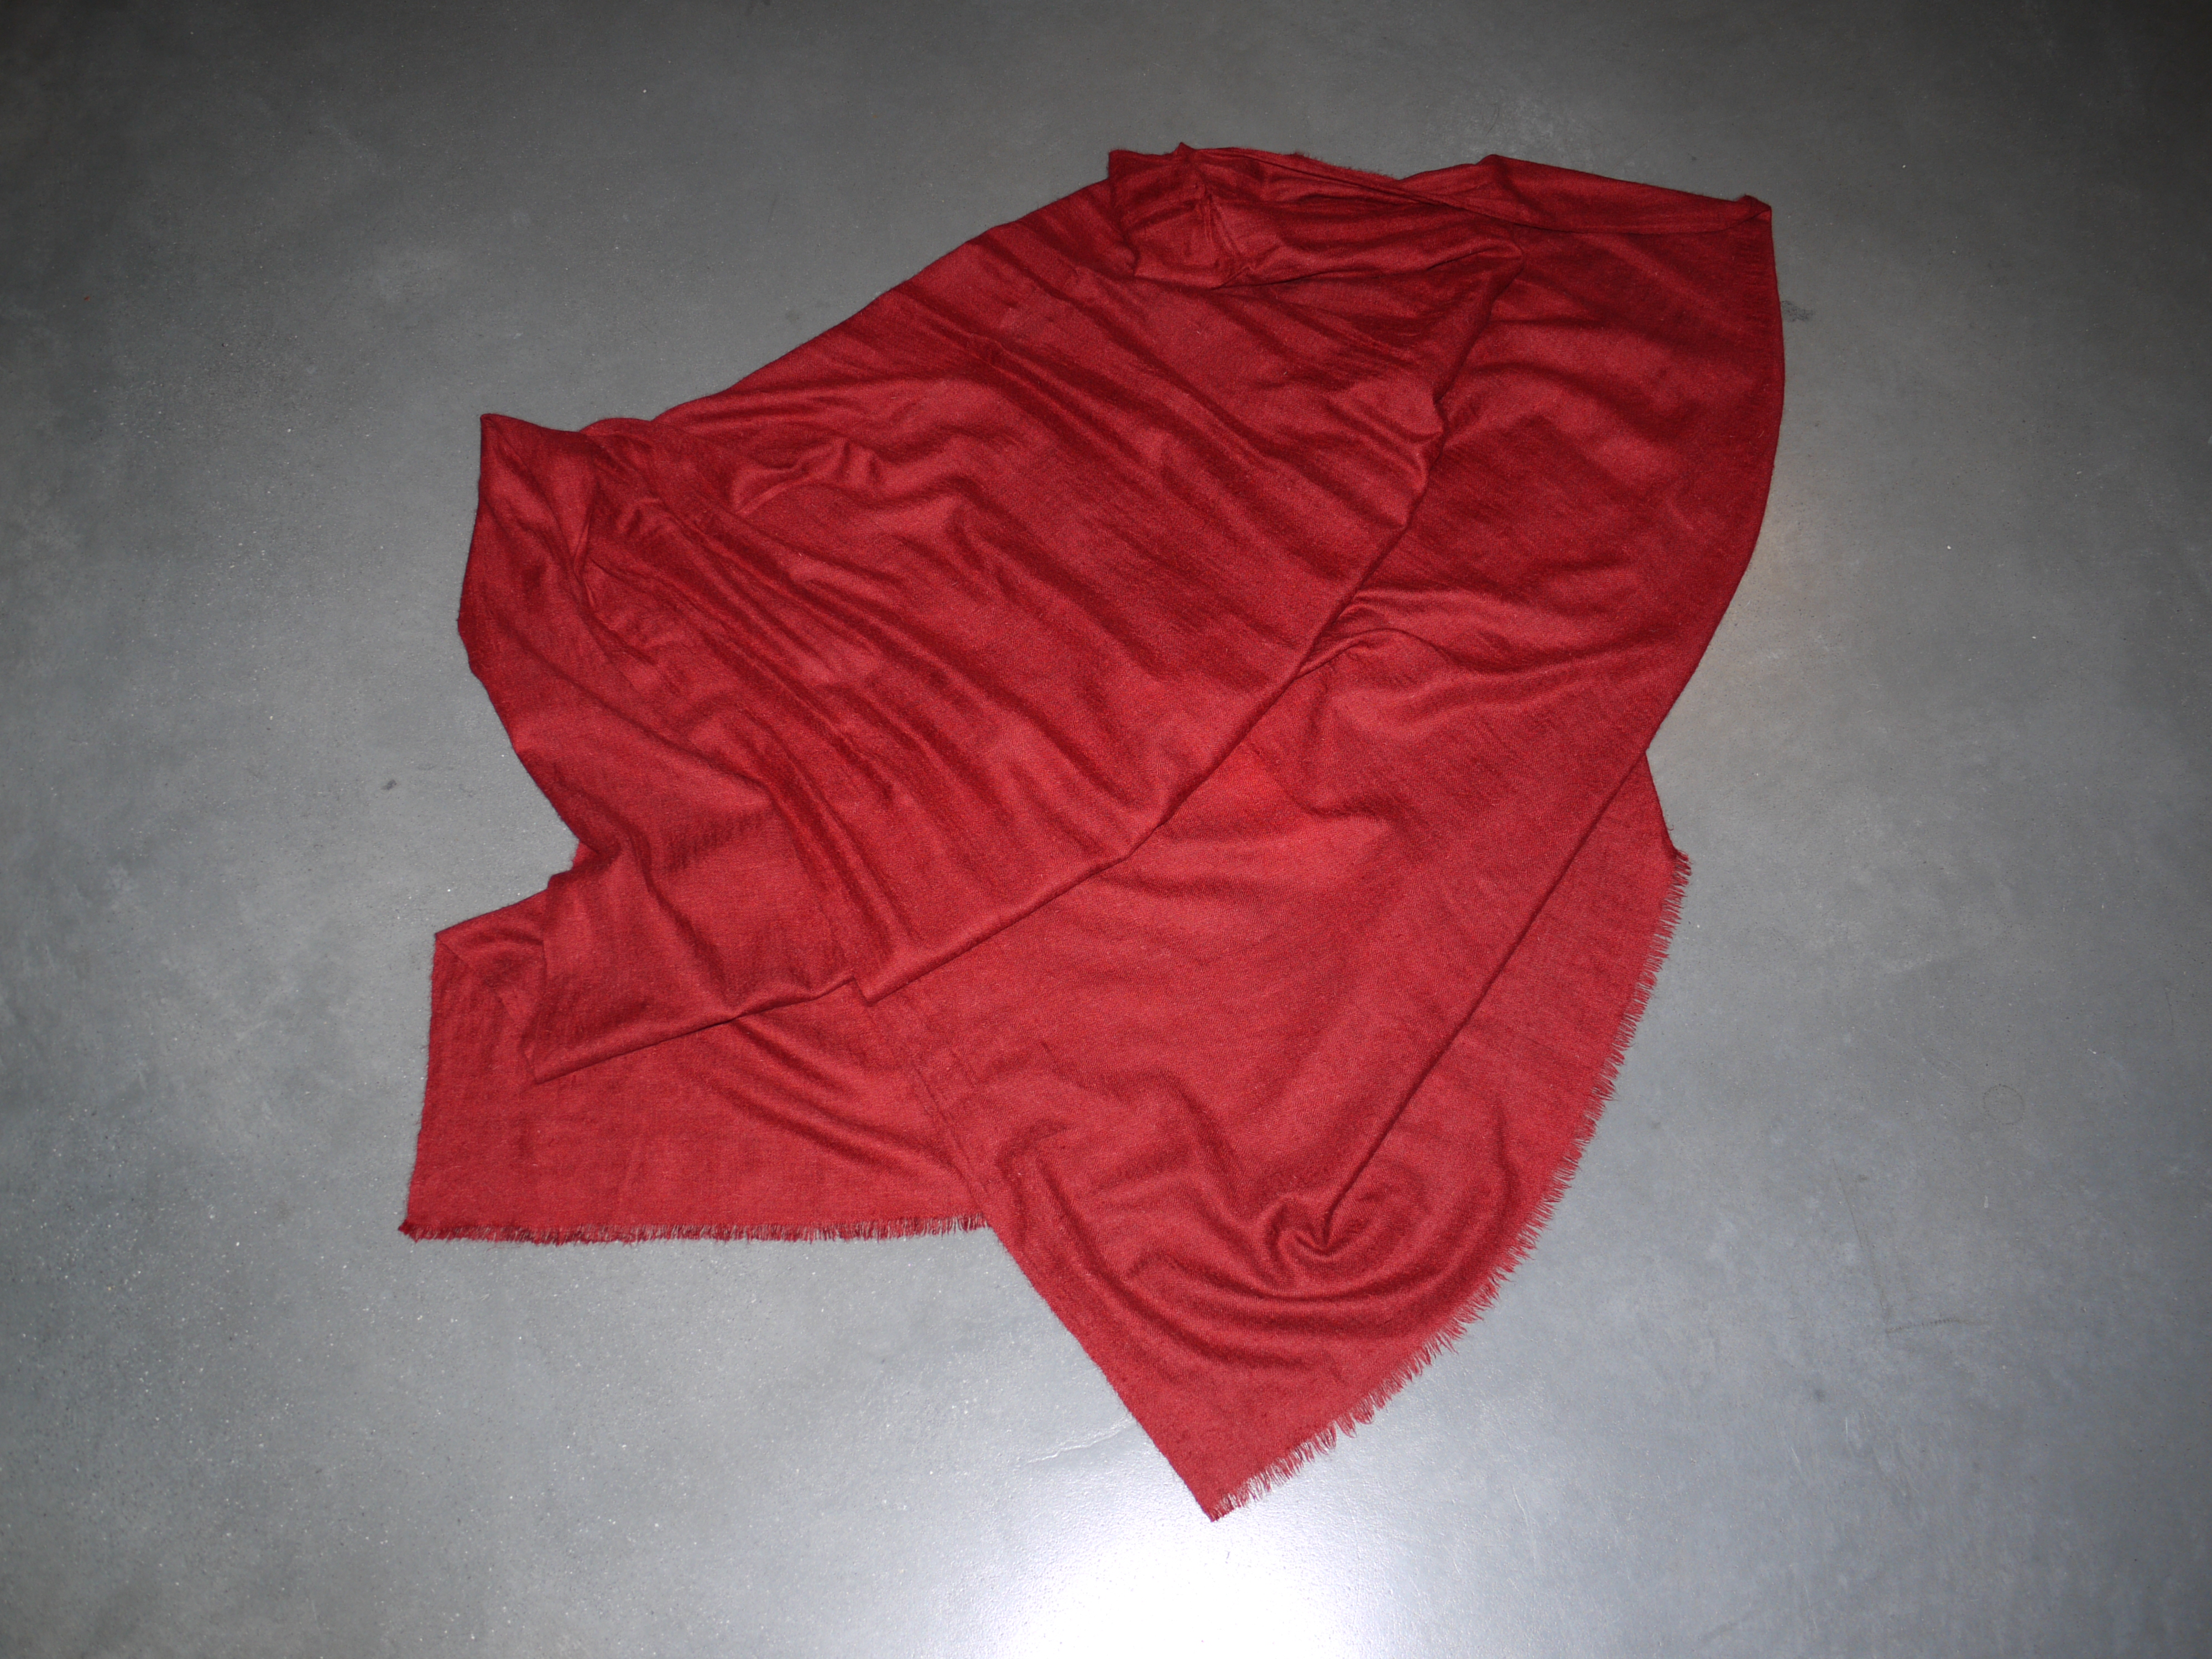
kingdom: Animalia
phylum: Chordata
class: Mammalia
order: Artiodactyla
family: Bovidae
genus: Pantholops
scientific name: Pantholops hodgsonii
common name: Chiru
